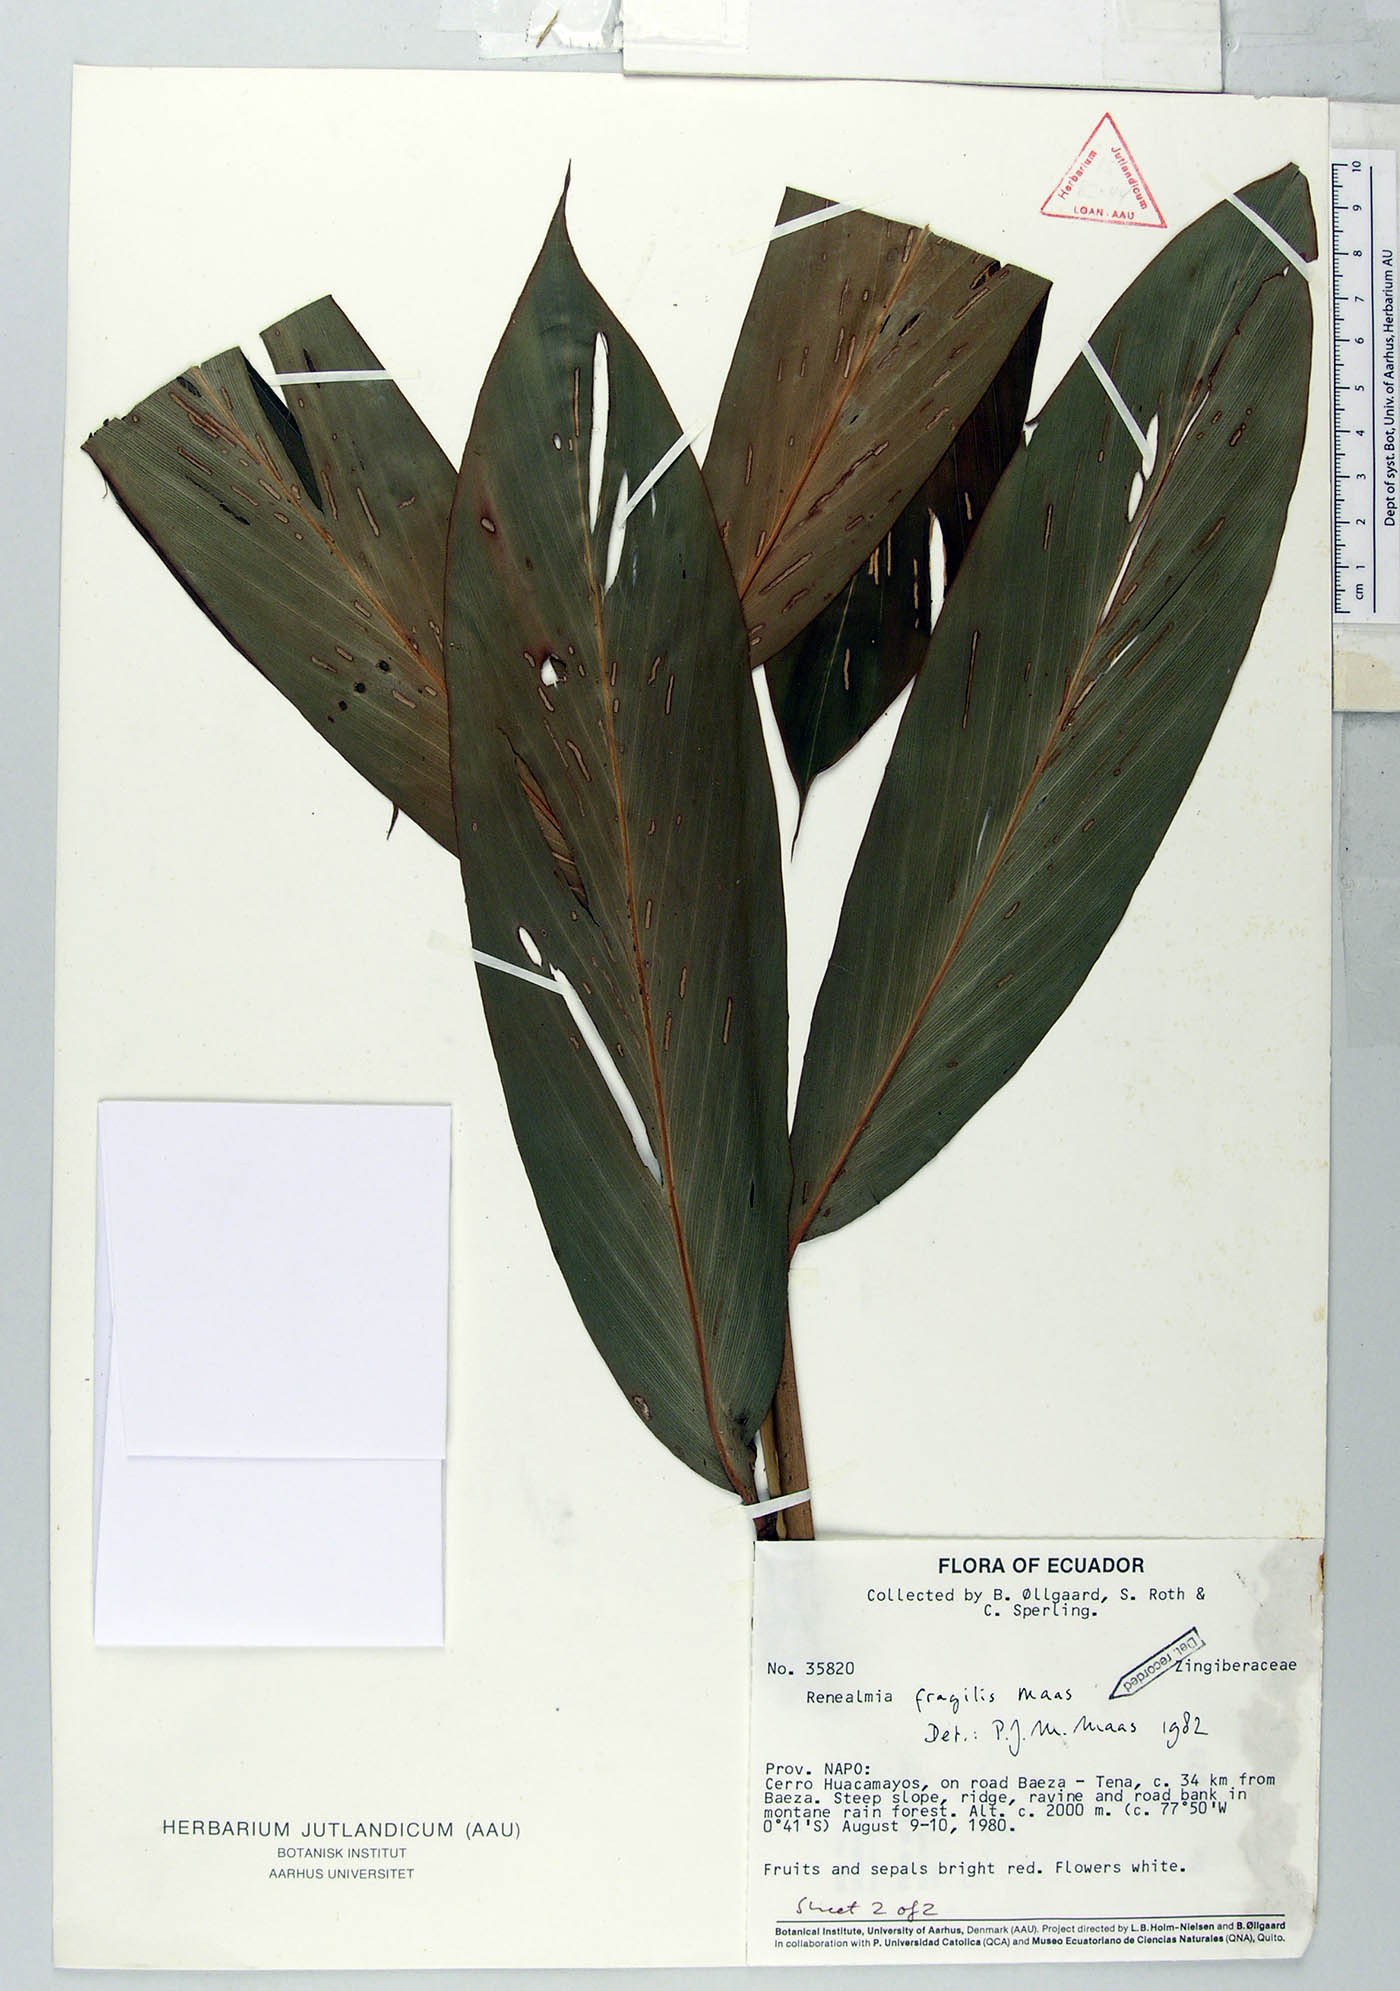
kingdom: Plantae
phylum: Tracheophyta
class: Liliopsida
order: Zingiberales
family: Zingiberaceae
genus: Renealmia
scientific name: Renealmia fragilis
